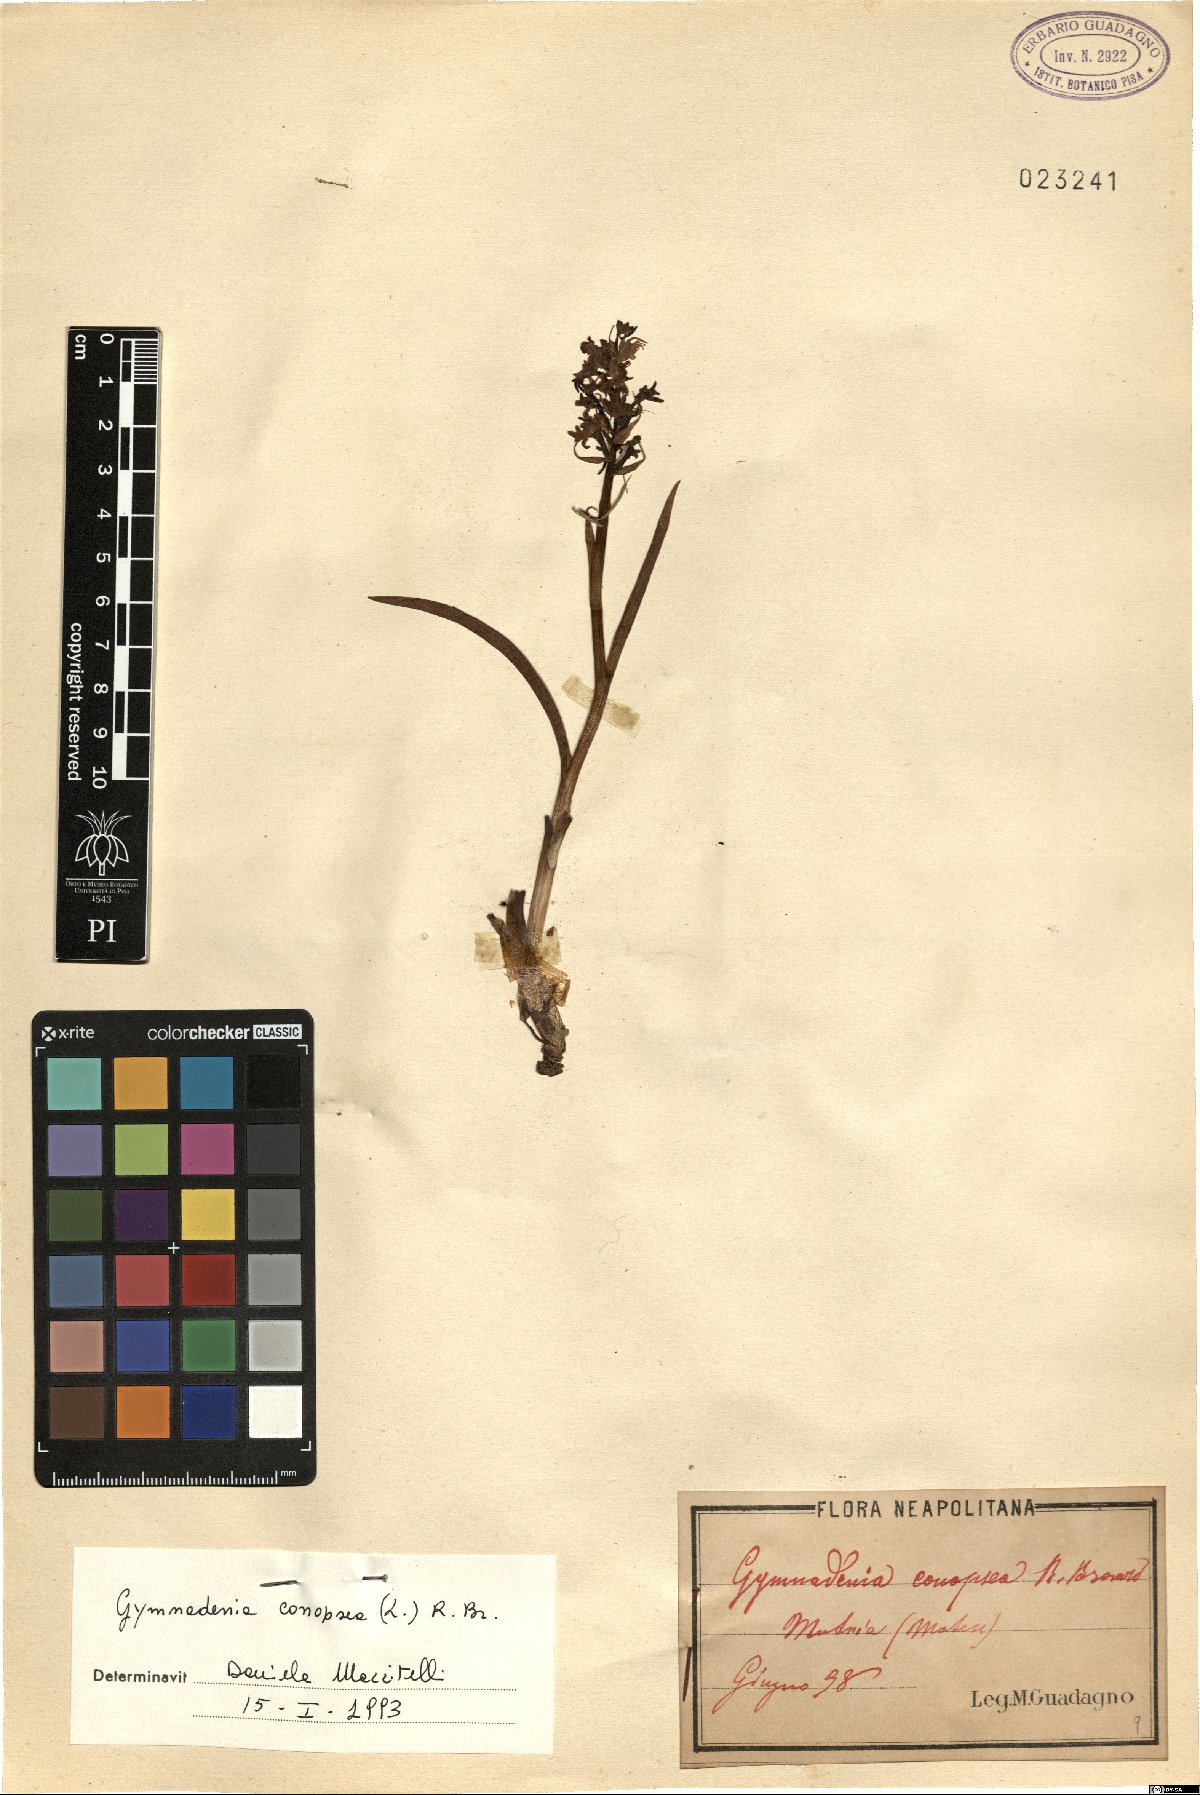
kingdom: Plantae
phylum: Tracheophyta
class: Liliopsida
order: Asparagales
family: Orchidaceae
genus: Gymnadenia
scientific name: Gymnadenia conopsea
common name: Fragrant orchid
